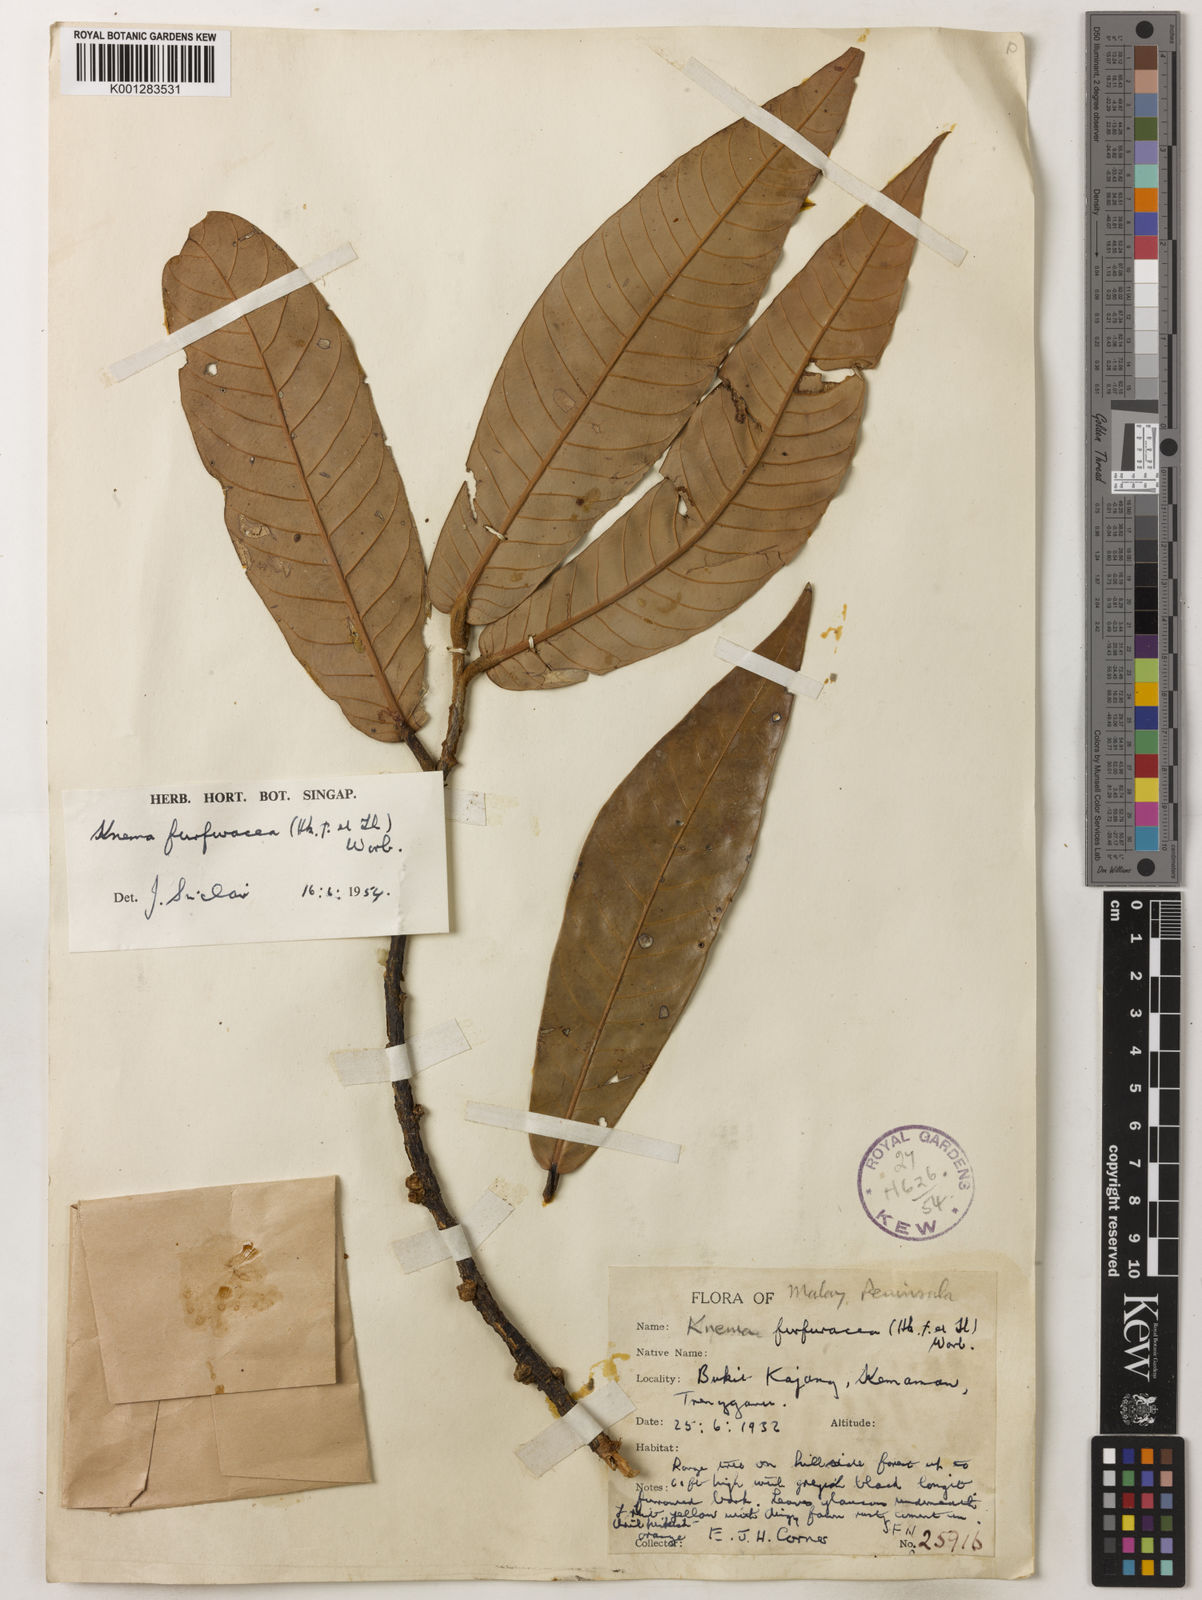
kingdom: Plantae
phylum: Tracheophyta
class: Magnoliopsida
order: Magnoliales
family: Myristicaceae
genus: Knema
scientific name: Knema furfuracea
